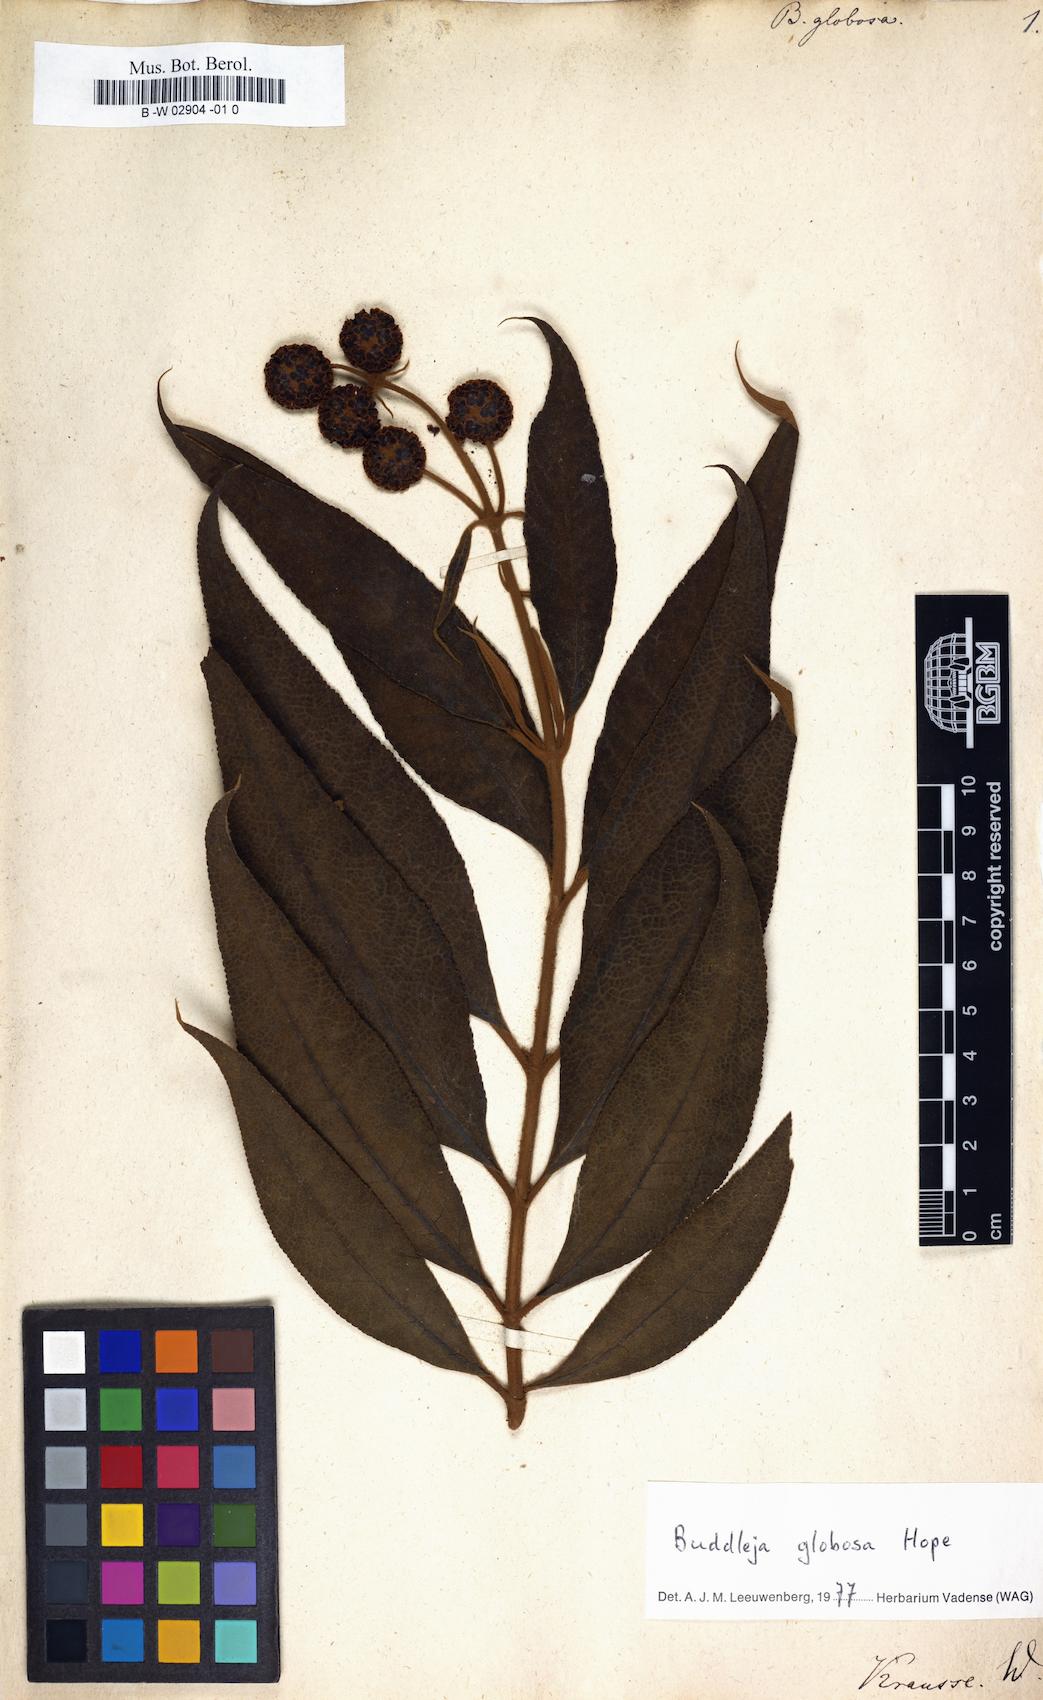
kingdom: Plantae
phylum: Tracheophyta
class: Magnoliopsida
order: Lamiales
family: Scrophulariaceae
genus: Buddleja
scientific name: Buddleja globosa
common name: Orange-ball-tree
